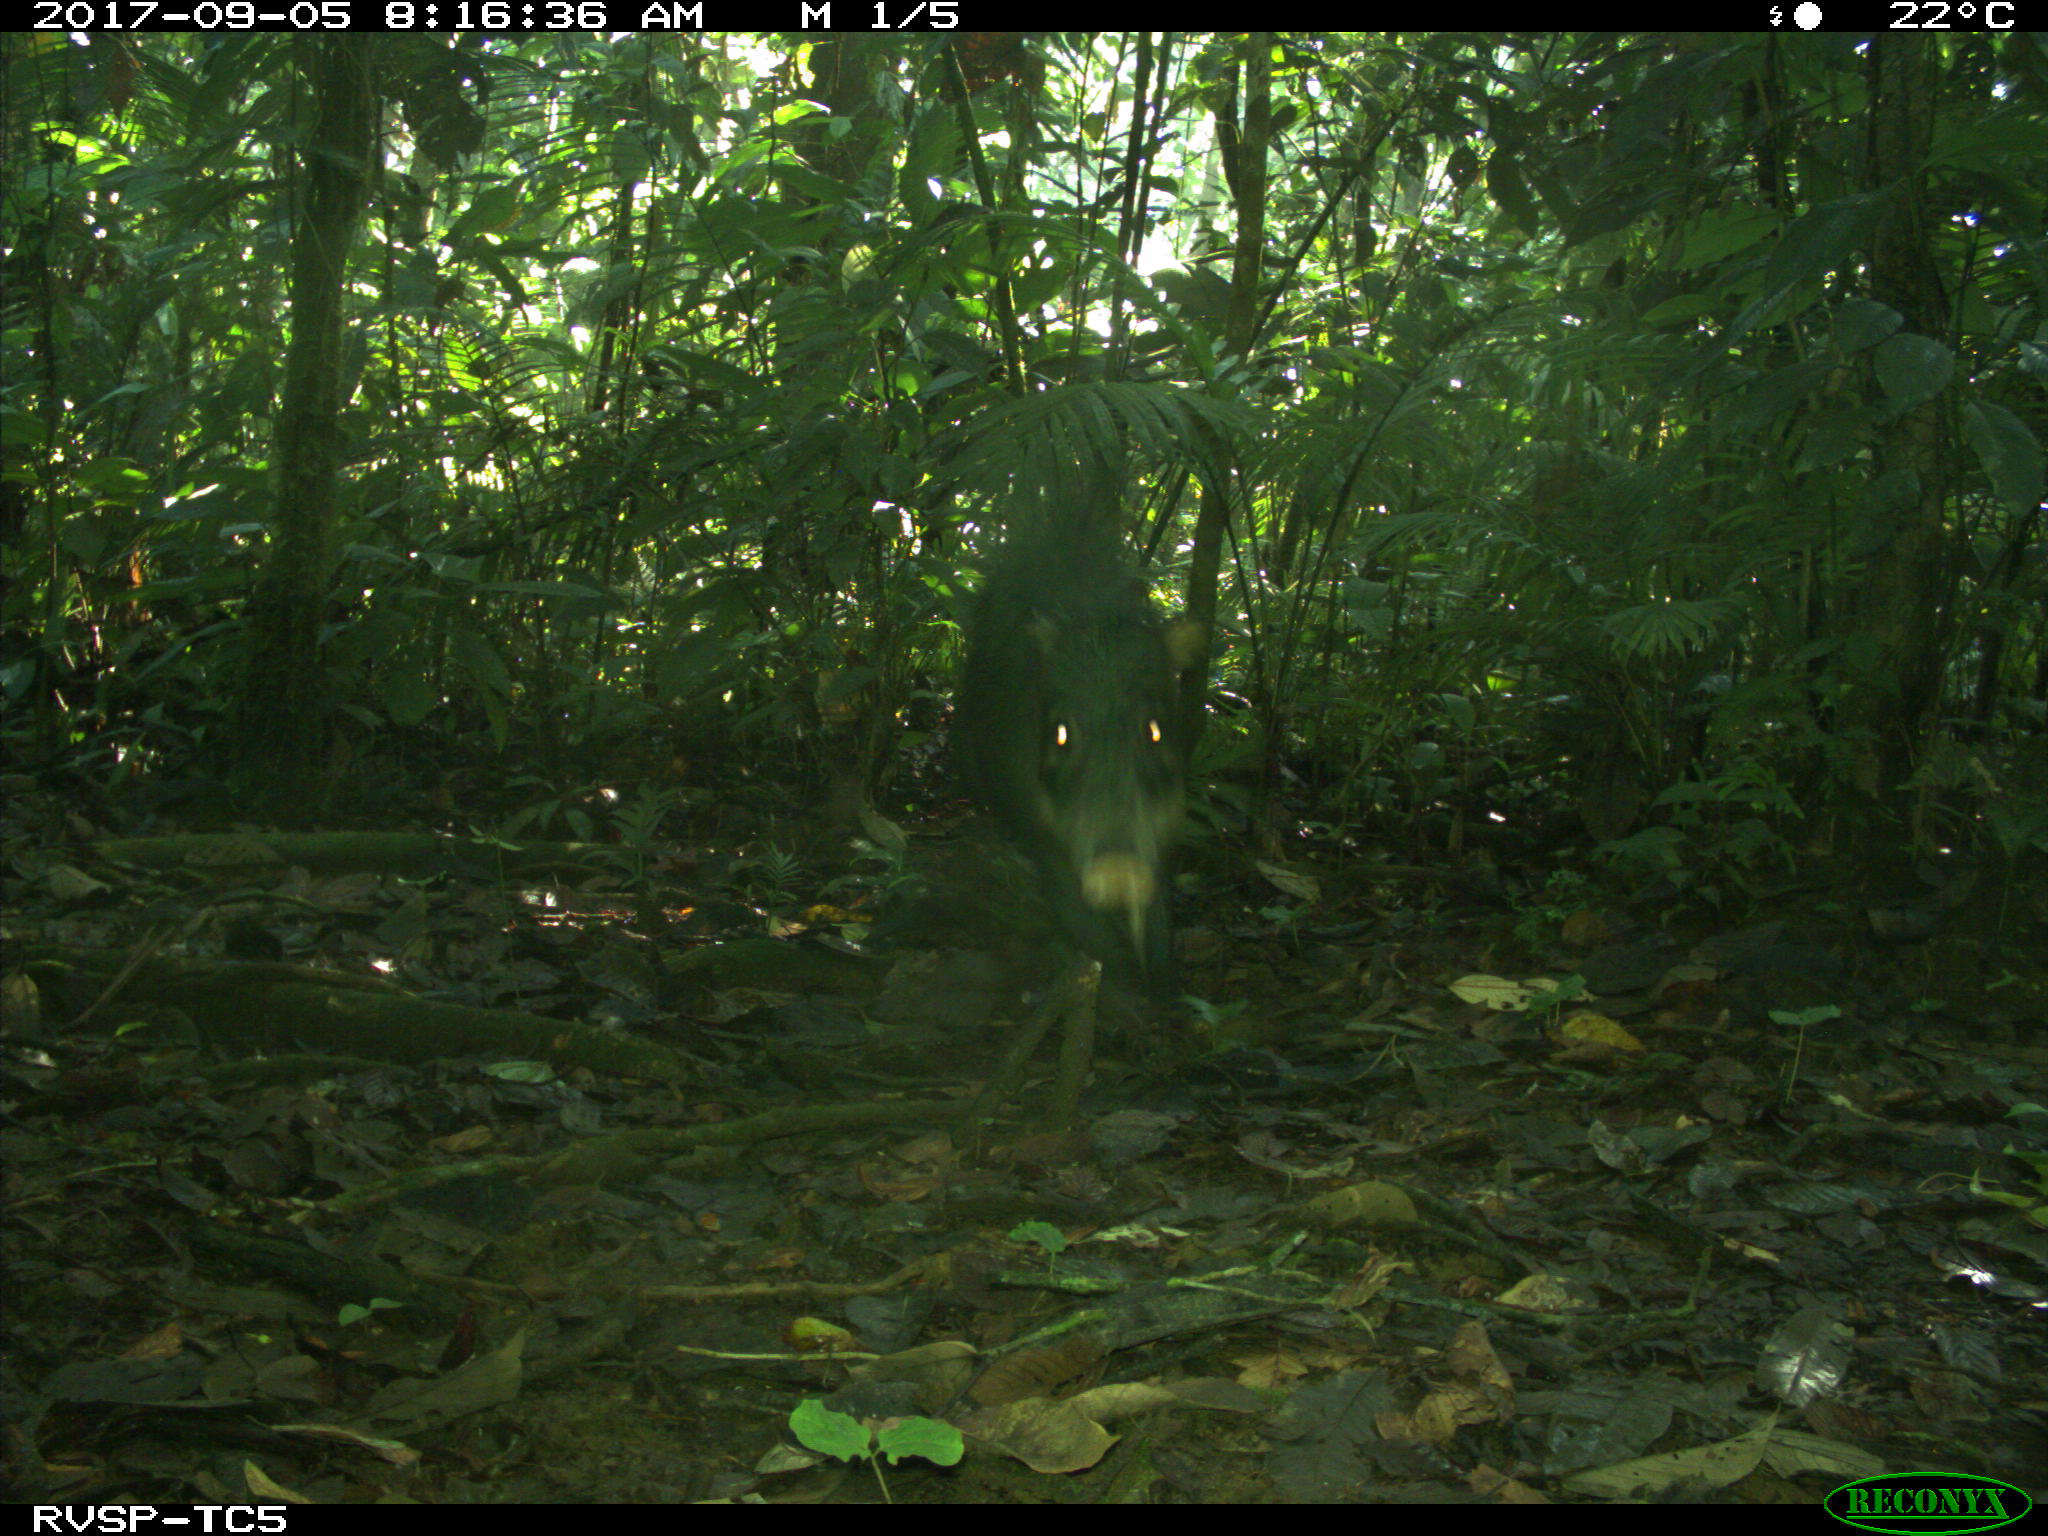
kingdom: Animalia
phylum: Chordata
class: Mammalia
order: Artiodactyla
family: Tayassuidae
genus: Tayassu
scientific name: Tayassu pecari
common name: White-lipped peccary
